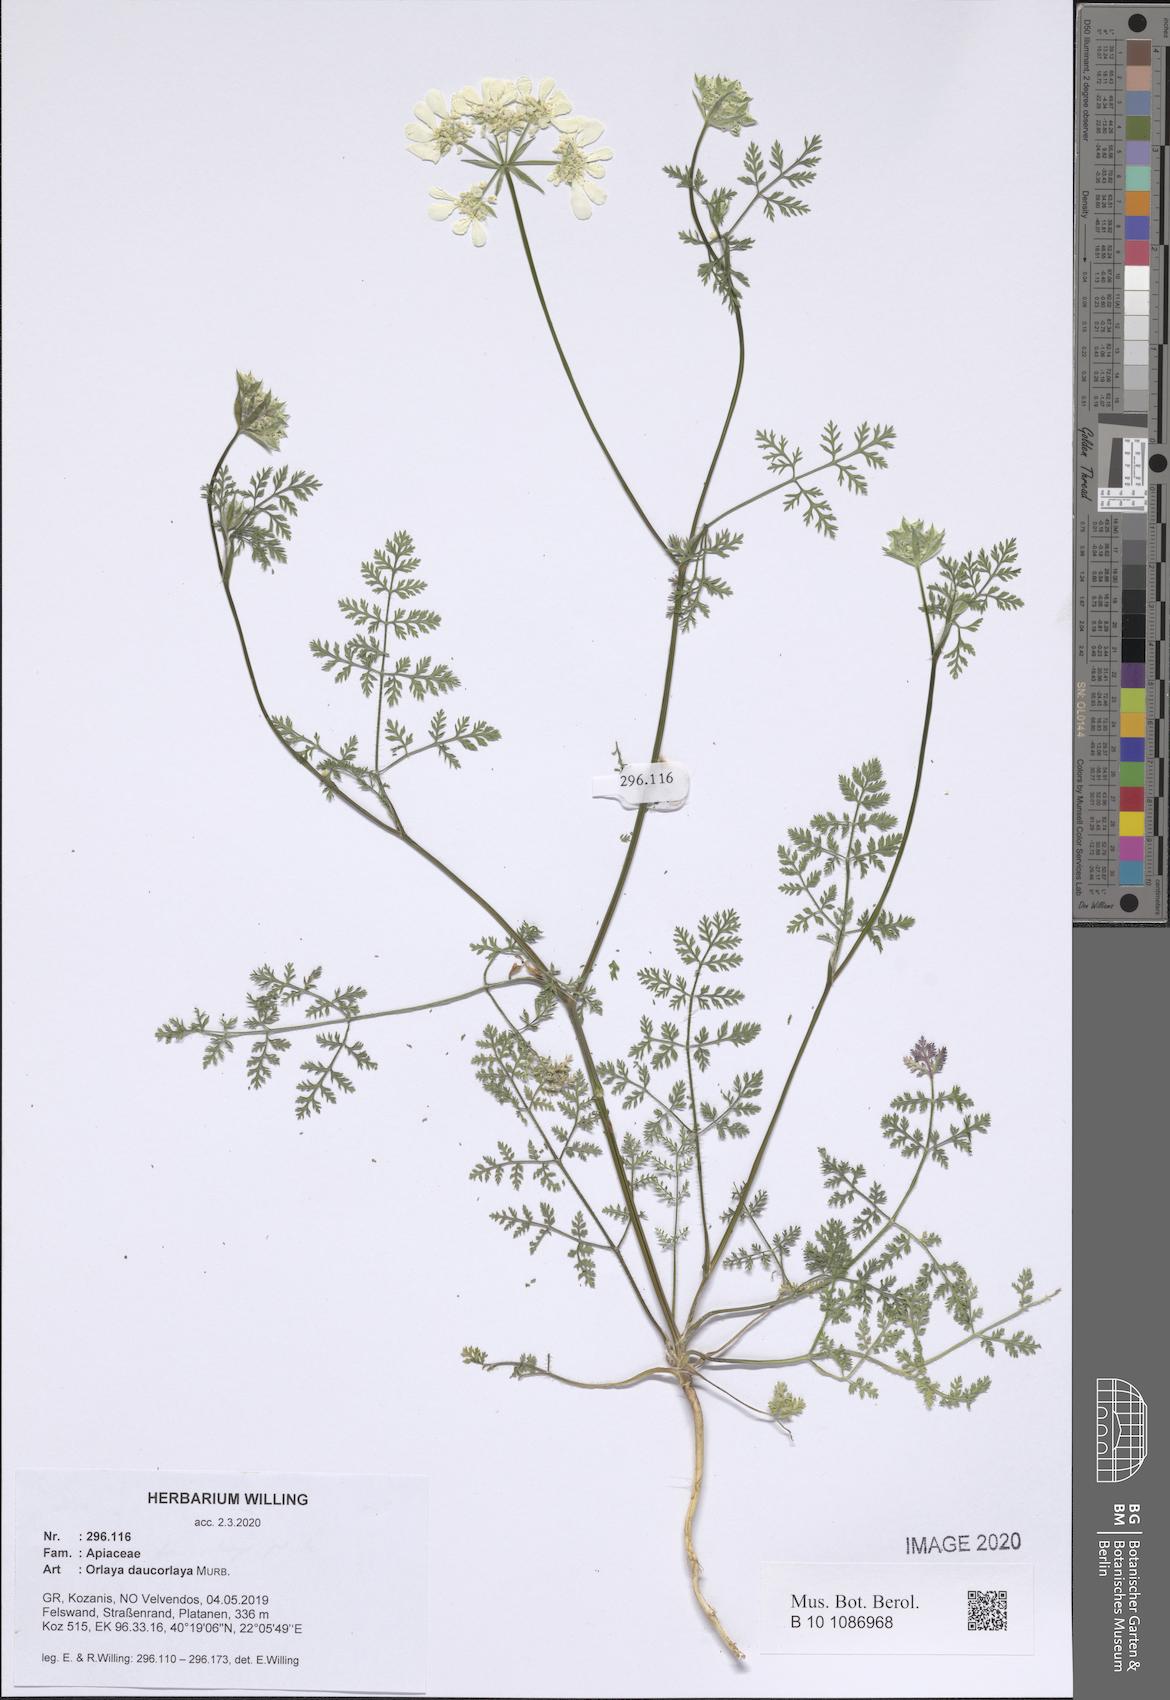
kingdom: Plantae
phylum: Tracheophyta
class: Magnoliopsida
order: Apiales
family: Apiaceae
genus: Orlaya
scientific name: Orlaya daucorlaya
